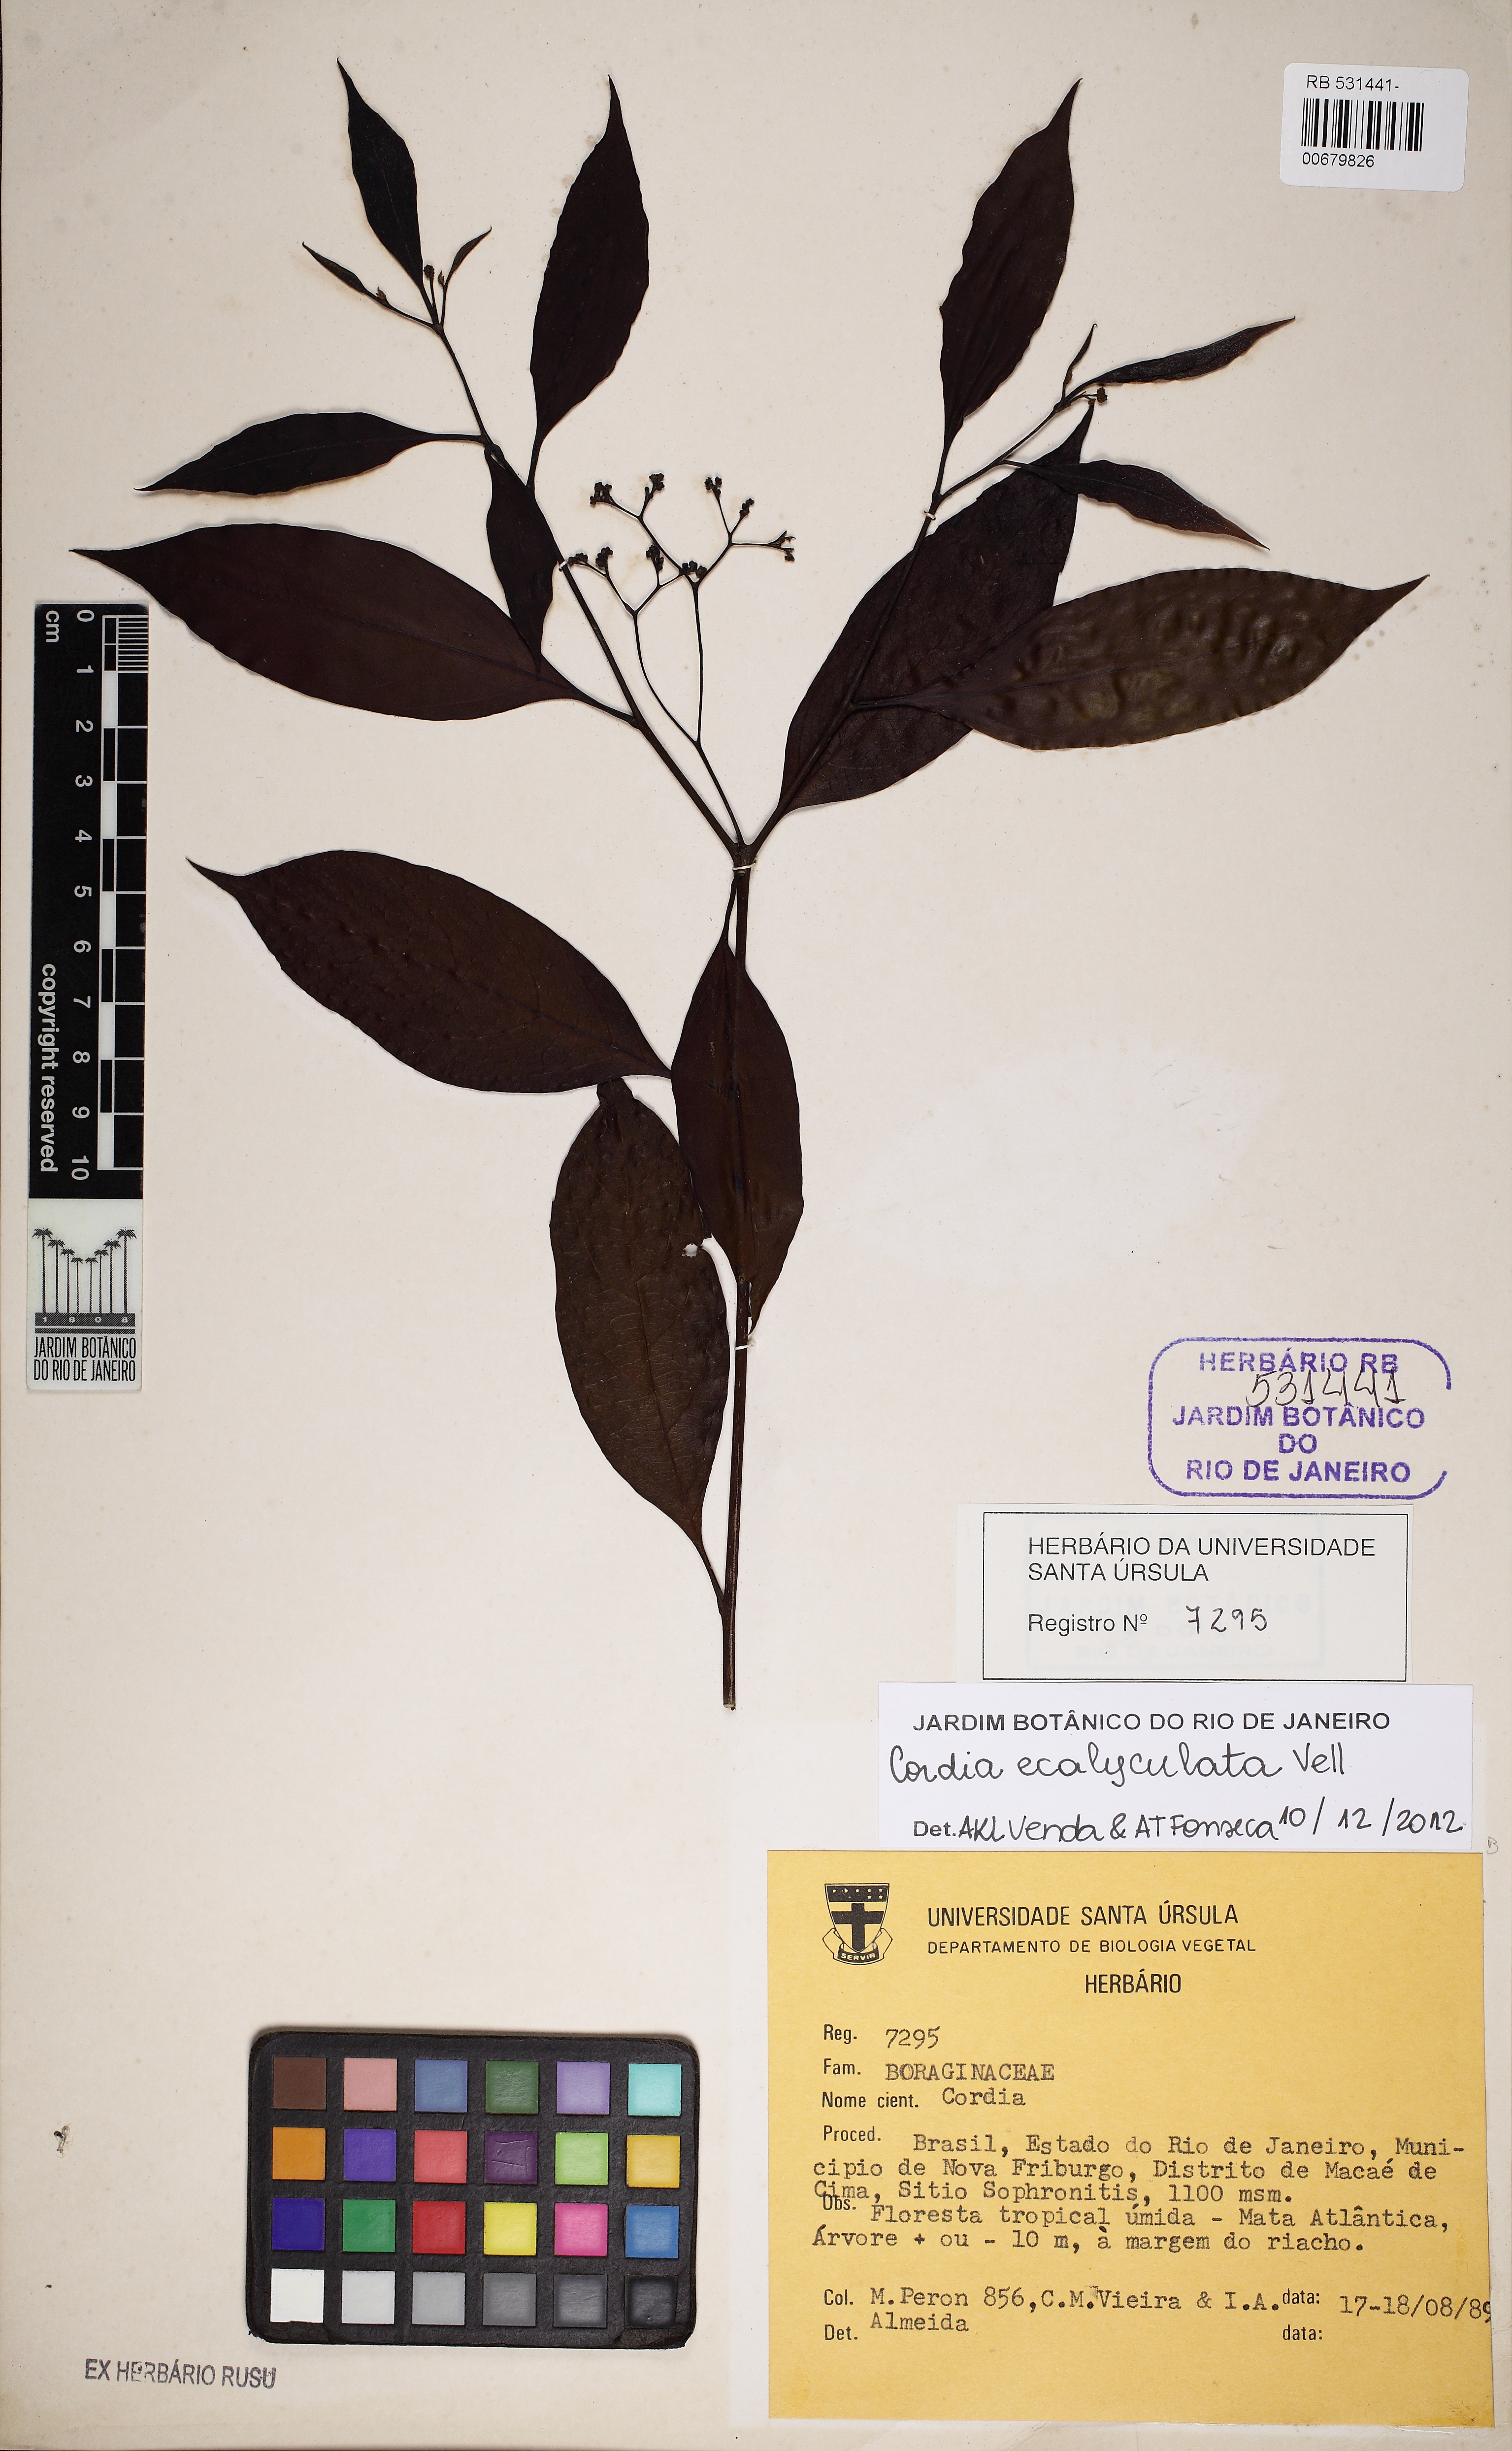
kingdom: Plantae
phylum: Tracheophyta
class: Magnoliopsida
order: Boraginales
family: Cordiaceae
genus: Cordia
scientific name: Cordia ecalyculata
